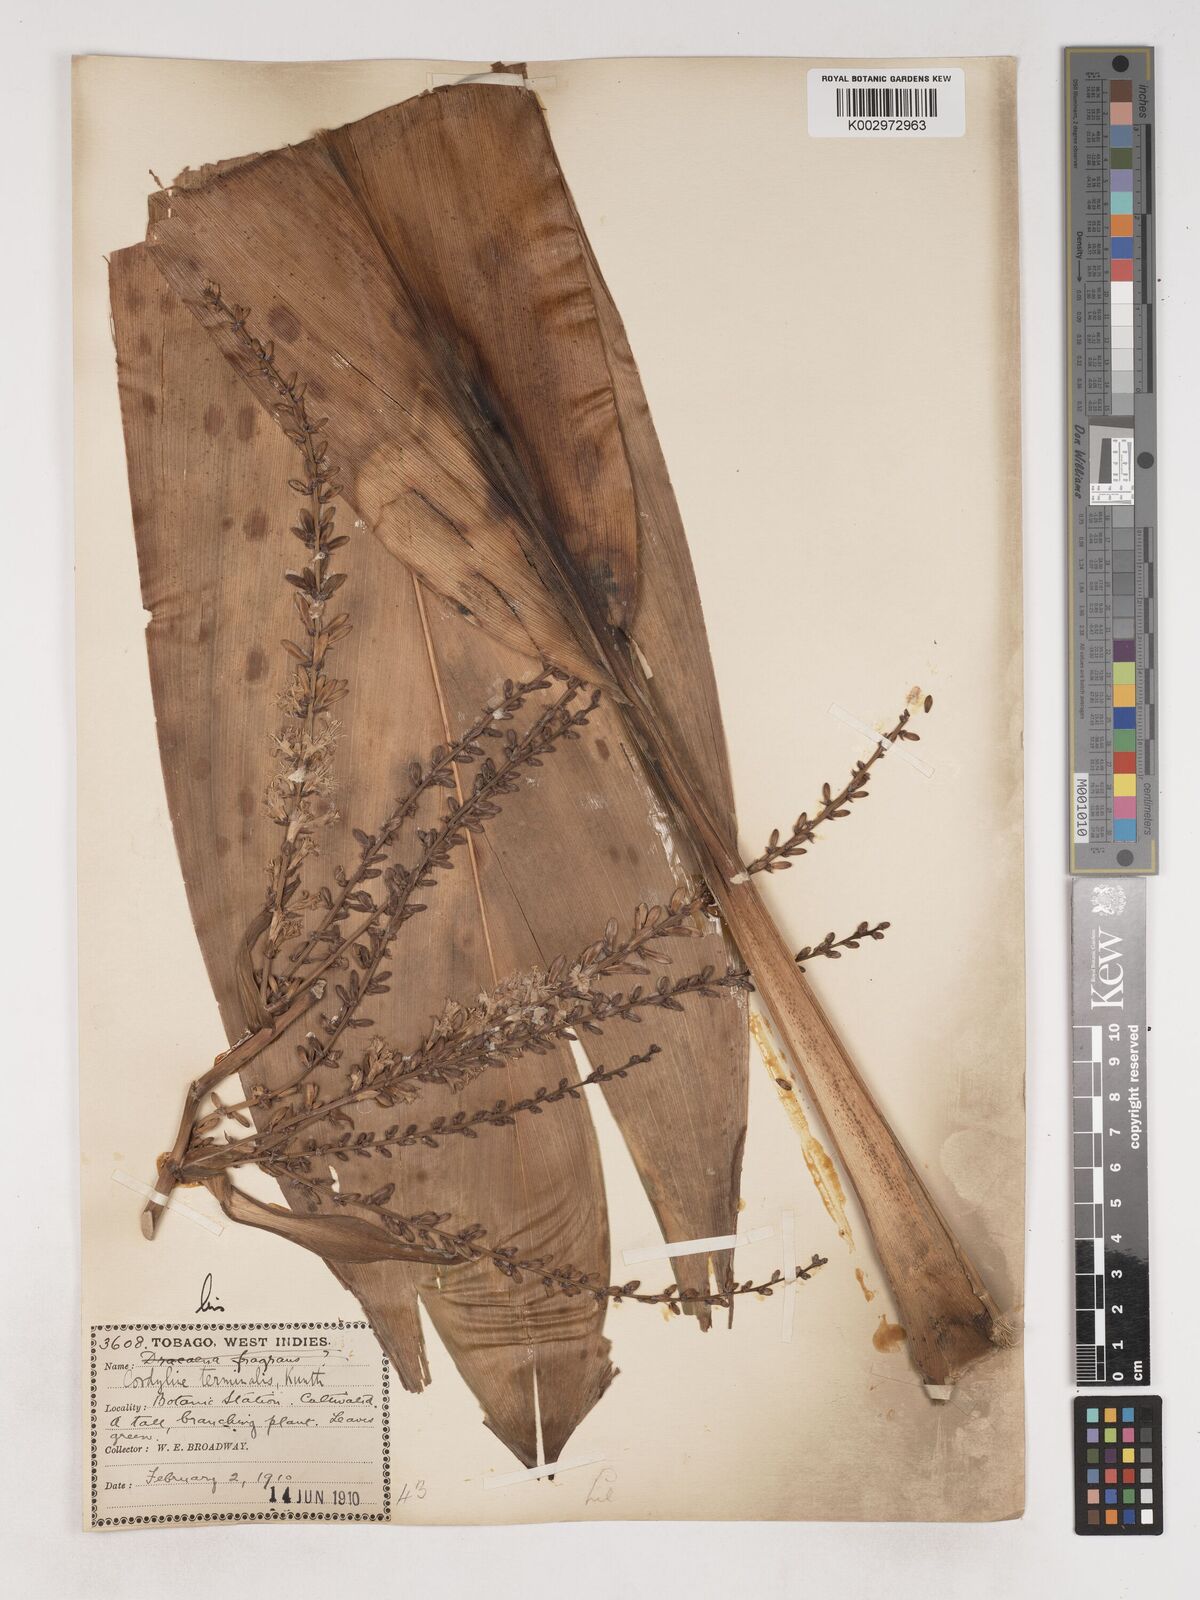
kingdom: Plantae
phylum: Tracheophyta
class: Liliopsida
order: Asparagales
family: Asparagaceae
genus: Cordyline
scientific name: Cordyline fruticosa
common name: Good-luck-plant
